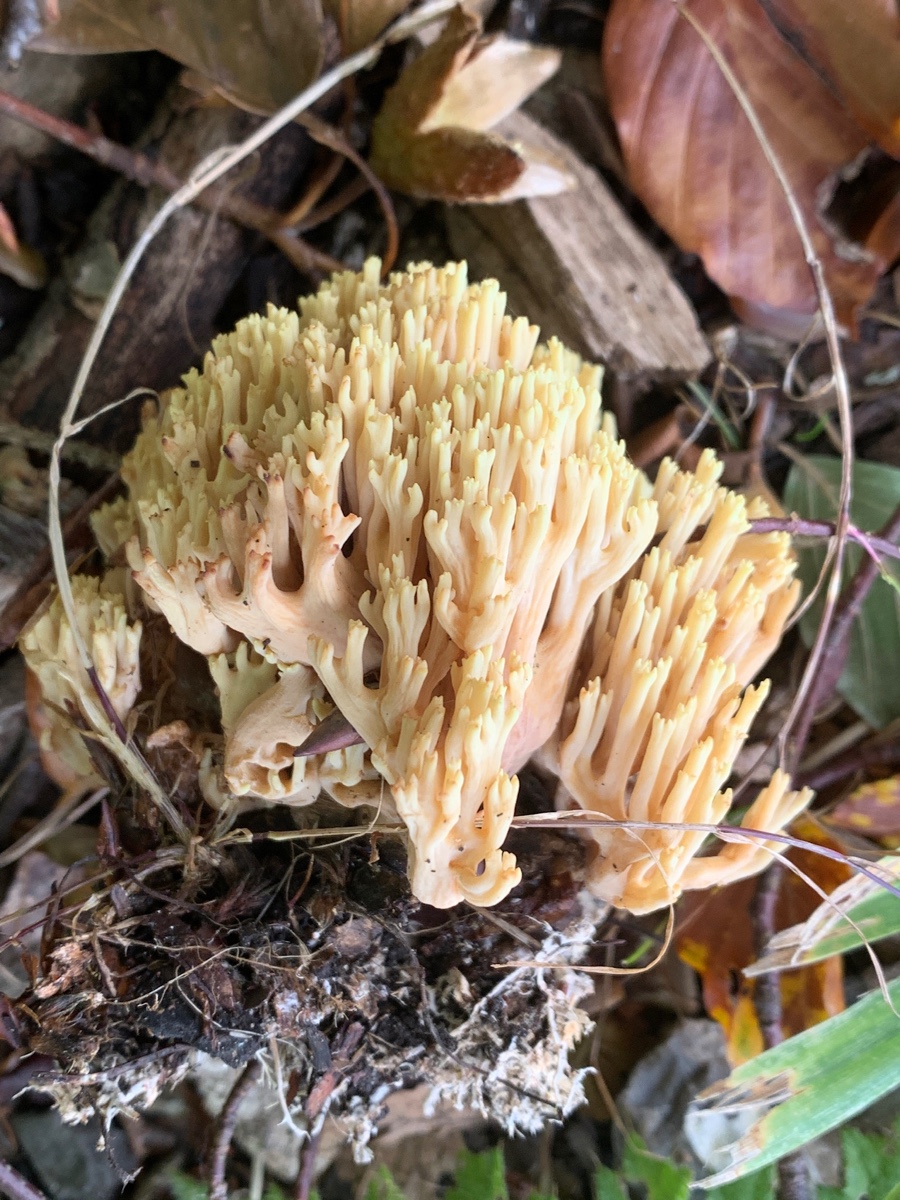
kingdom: Fungi
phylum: Basidiomycota
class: Agaricomycetes
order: Gomphales
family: Gomphaceae
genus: Ramaria
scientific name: Ramaria stricta
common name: rank koralsvamp
